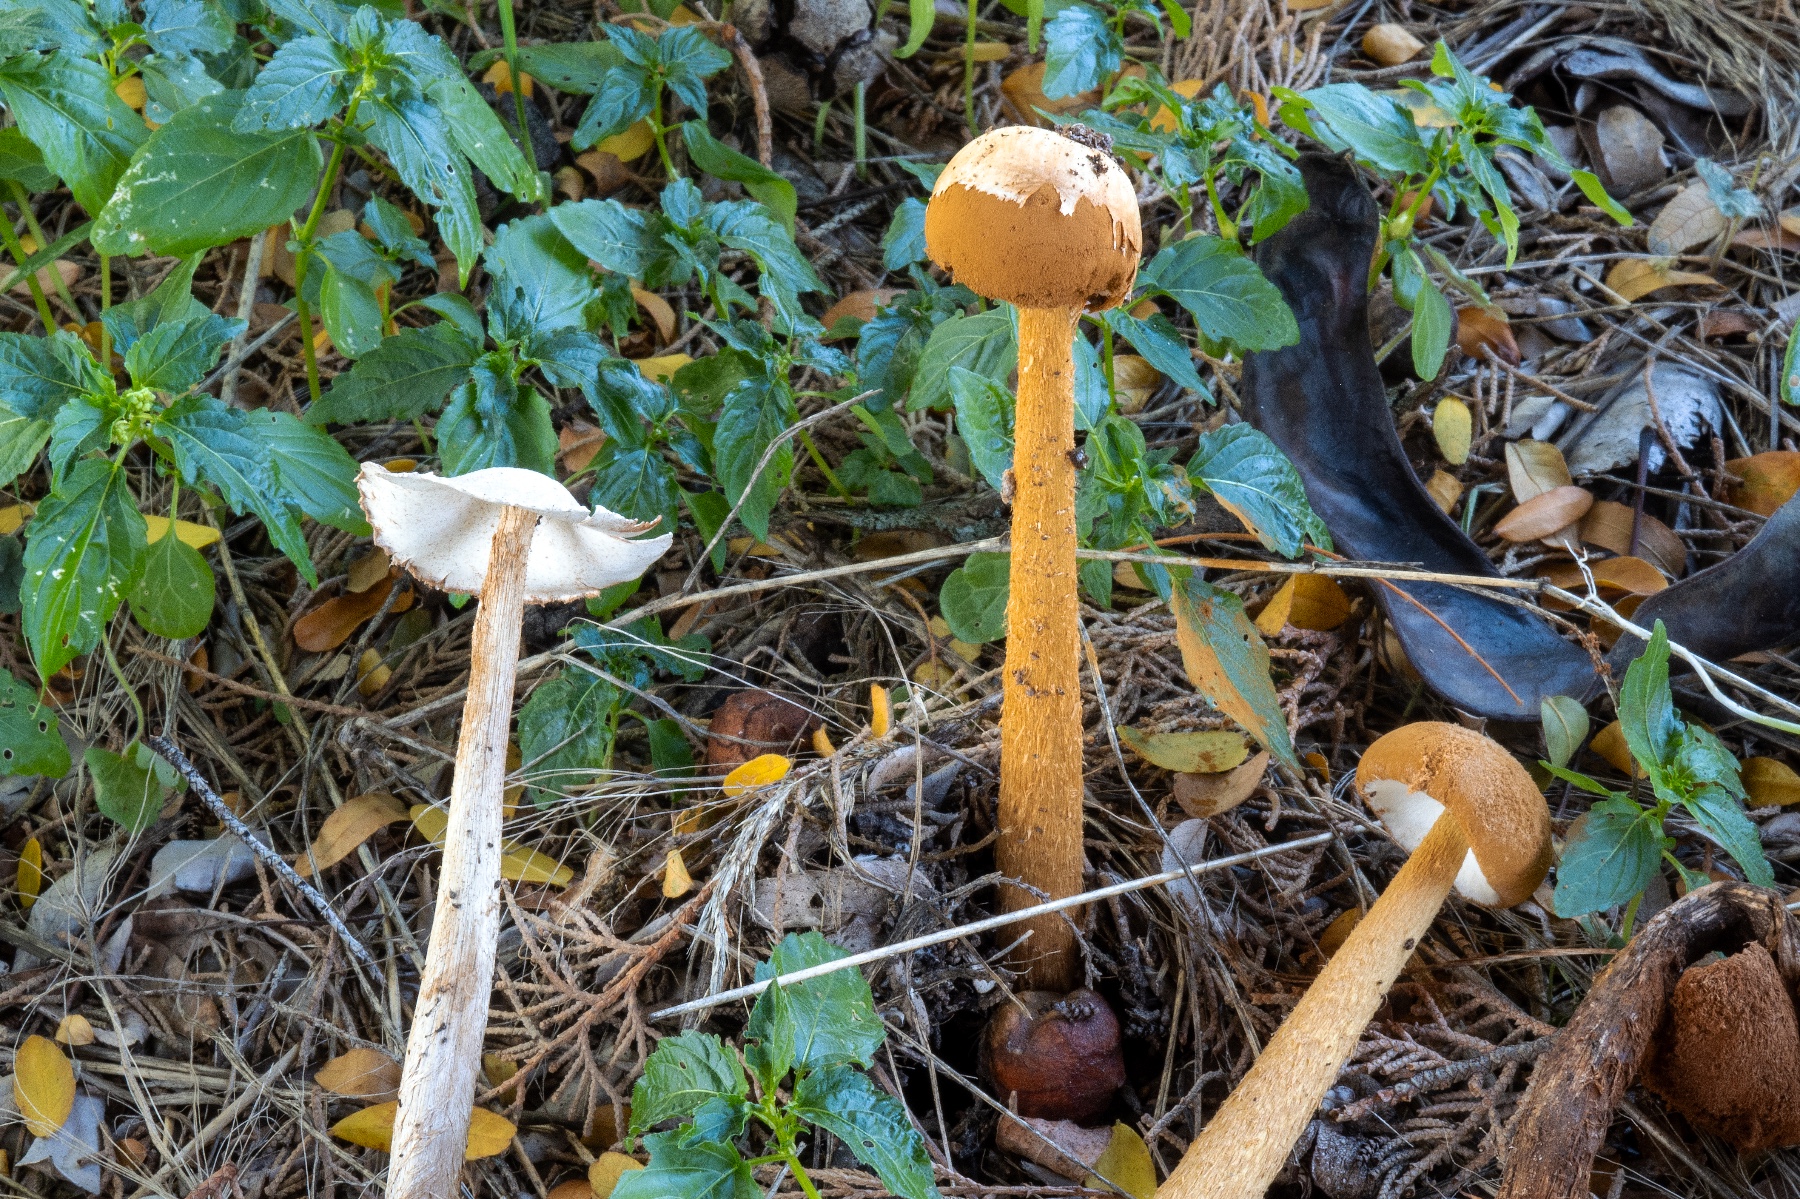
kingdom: Fungi
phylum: Basidiomycota
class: Agaricomycetes
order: Agaricales
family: Agaricaceae
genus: Battarrea
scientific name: Battarrea phalloides
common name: Sandy stiltball
